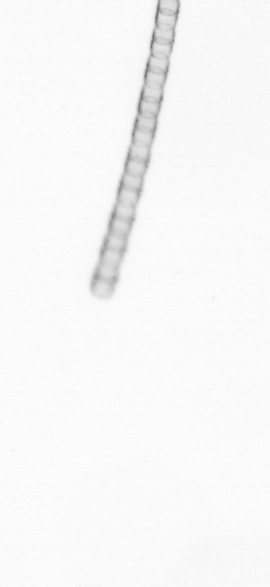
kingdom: Chromista
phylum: Ochrophyta
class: Bacillariophyceae
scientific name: Bacillariophyceae
